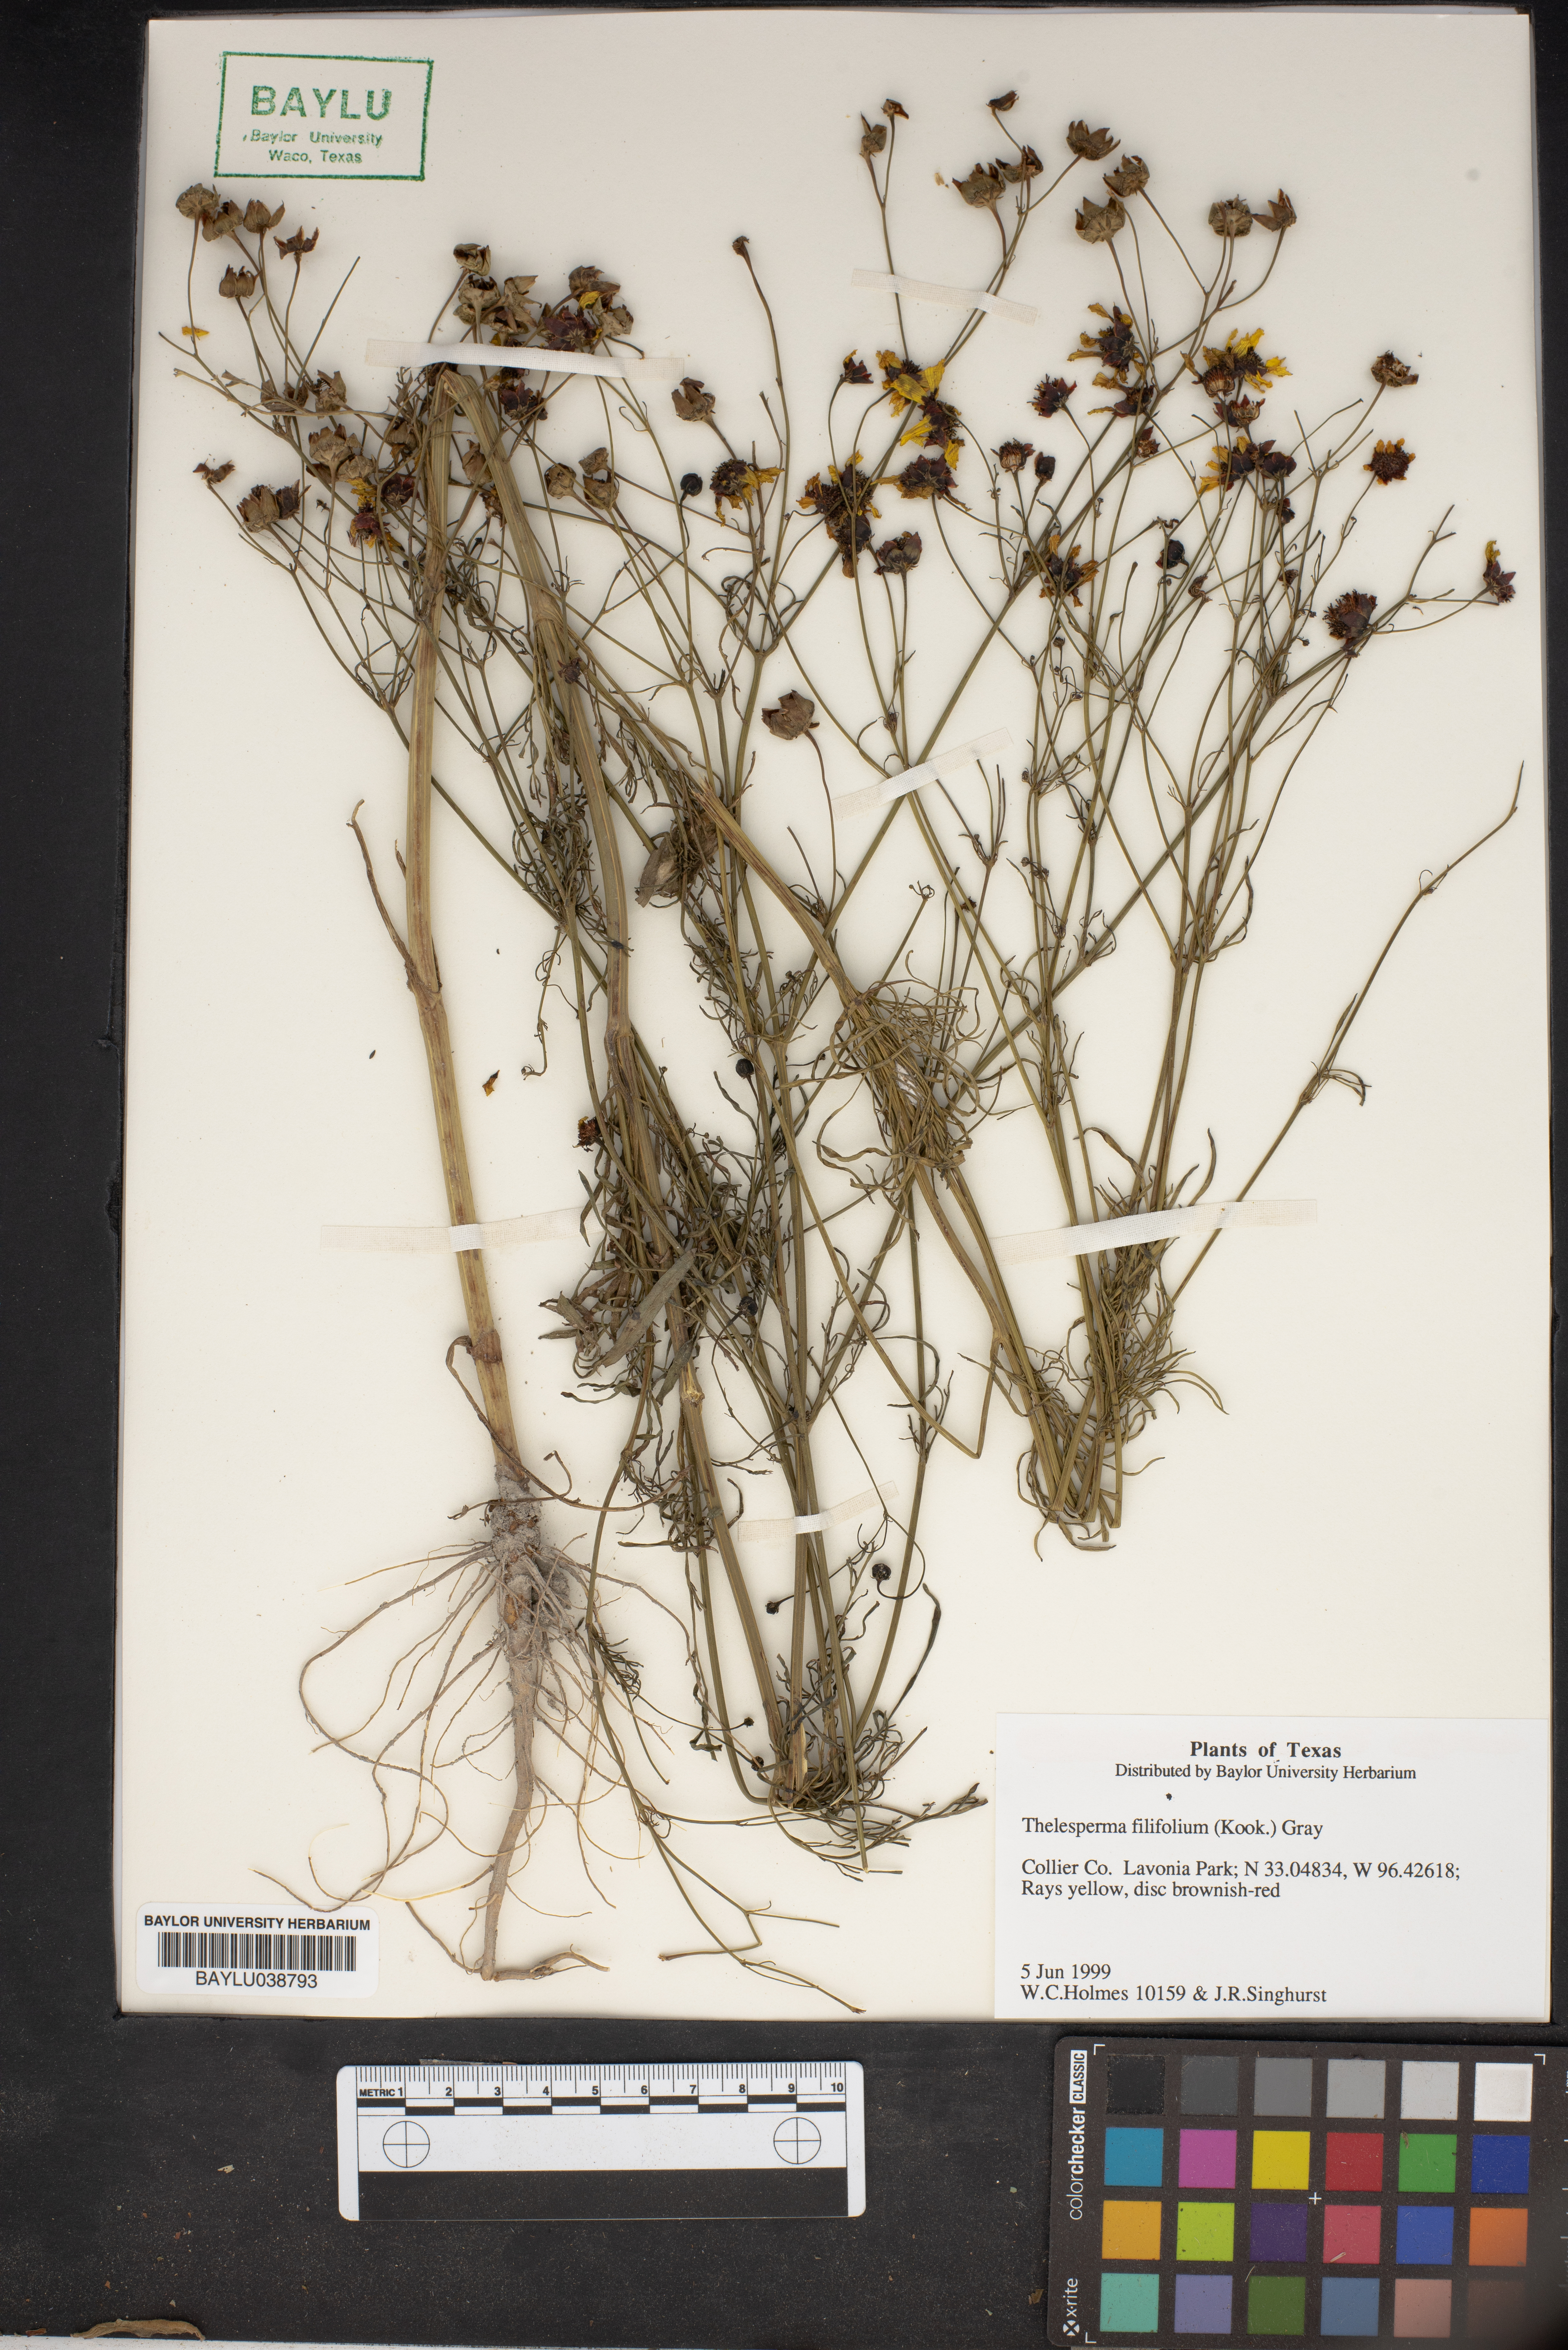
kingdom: Plantae
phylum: Tracheophyta
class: Magnoliopsida
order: Asterales
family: Asteraceae
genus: Thelesperma
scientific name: Thelesperma filifolium
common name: Stiff greenthread
